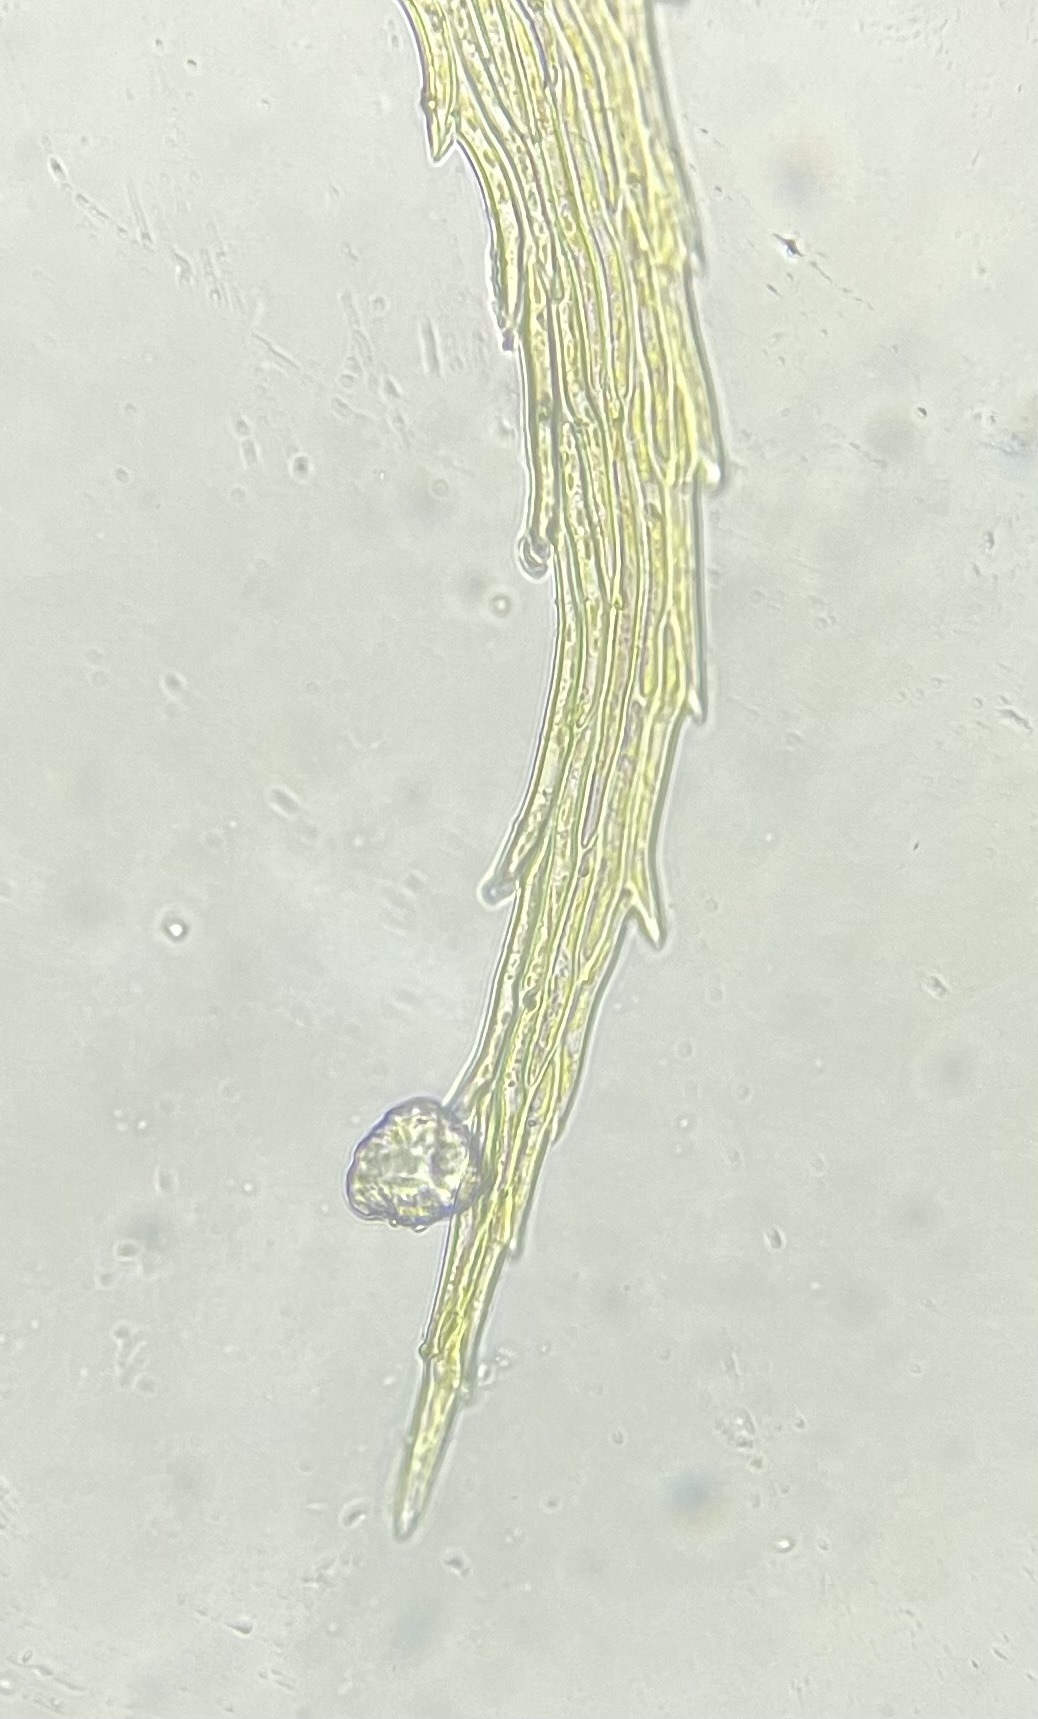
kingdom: Plantae
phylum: Bryophyta
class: Bryopsida
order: Hypnales
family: Myuriaceae
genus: Ctenidium
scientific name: Ctenidium molluscum
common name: Kalk-blødmos
